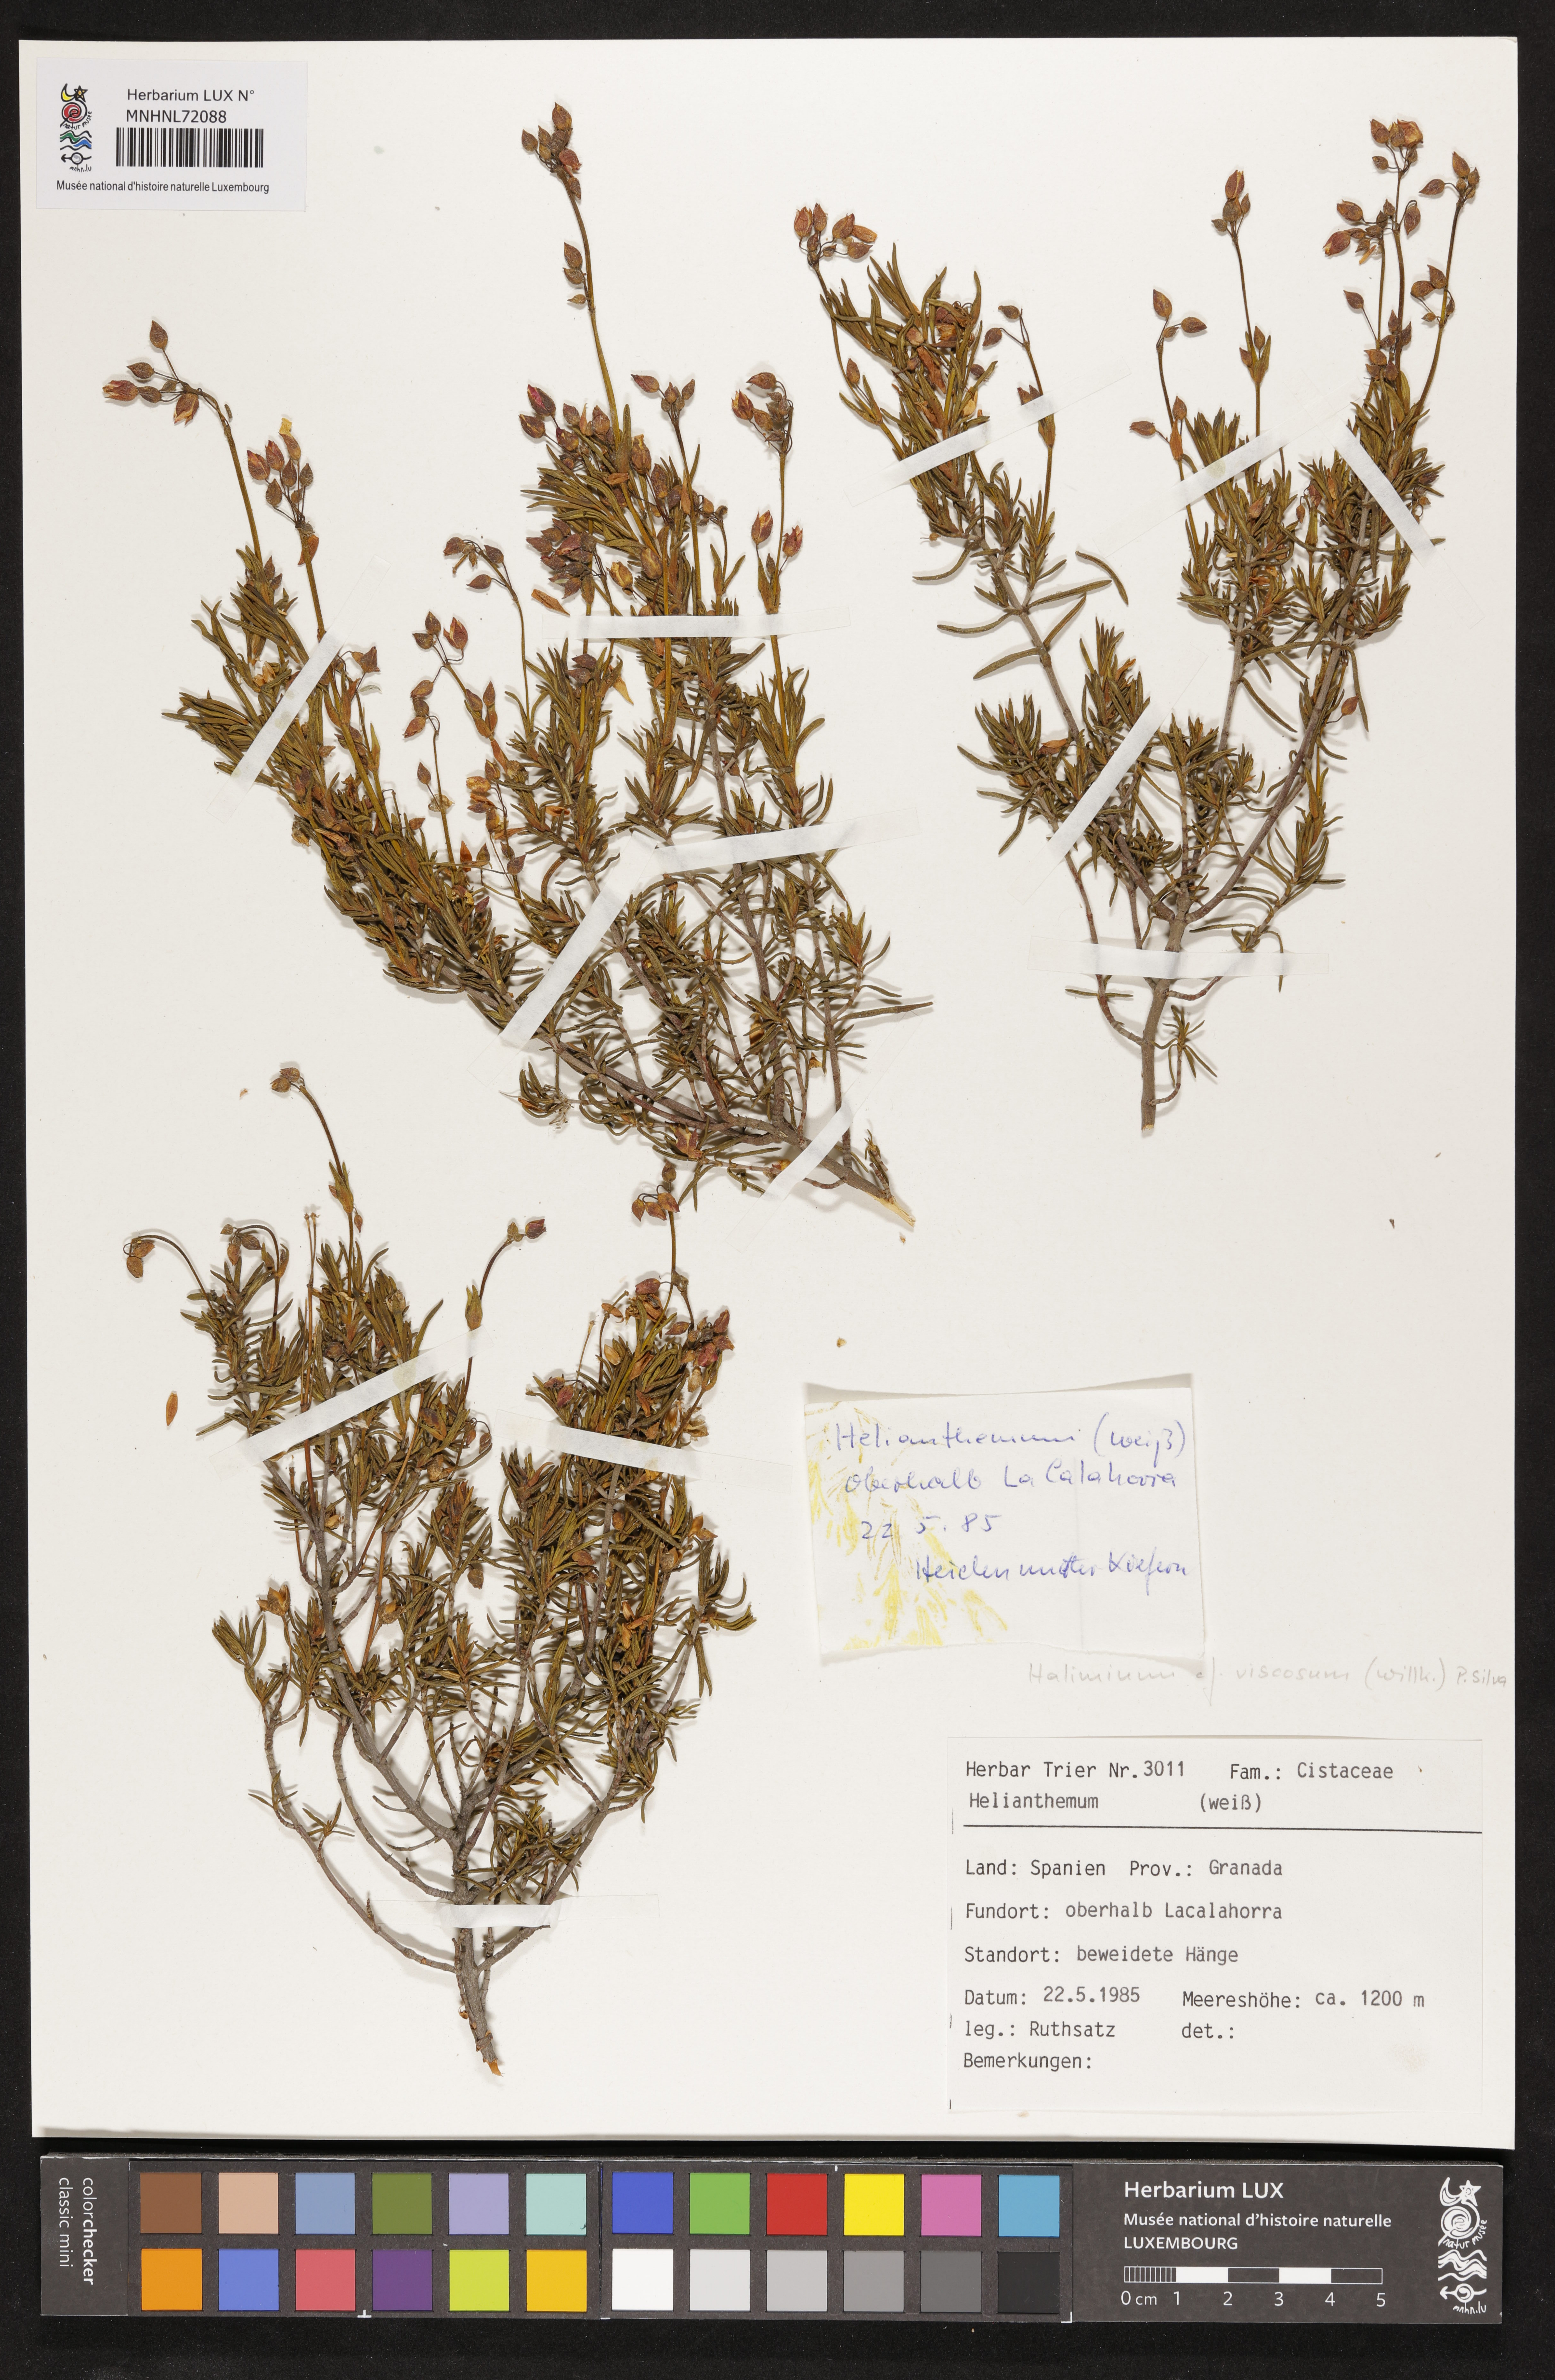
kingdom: Plantae
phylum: Tracheophyta
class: Magnoliopsida
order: Malvales
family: Cistaceae
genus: Helianthemum
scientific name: Helianthemum viscarium
